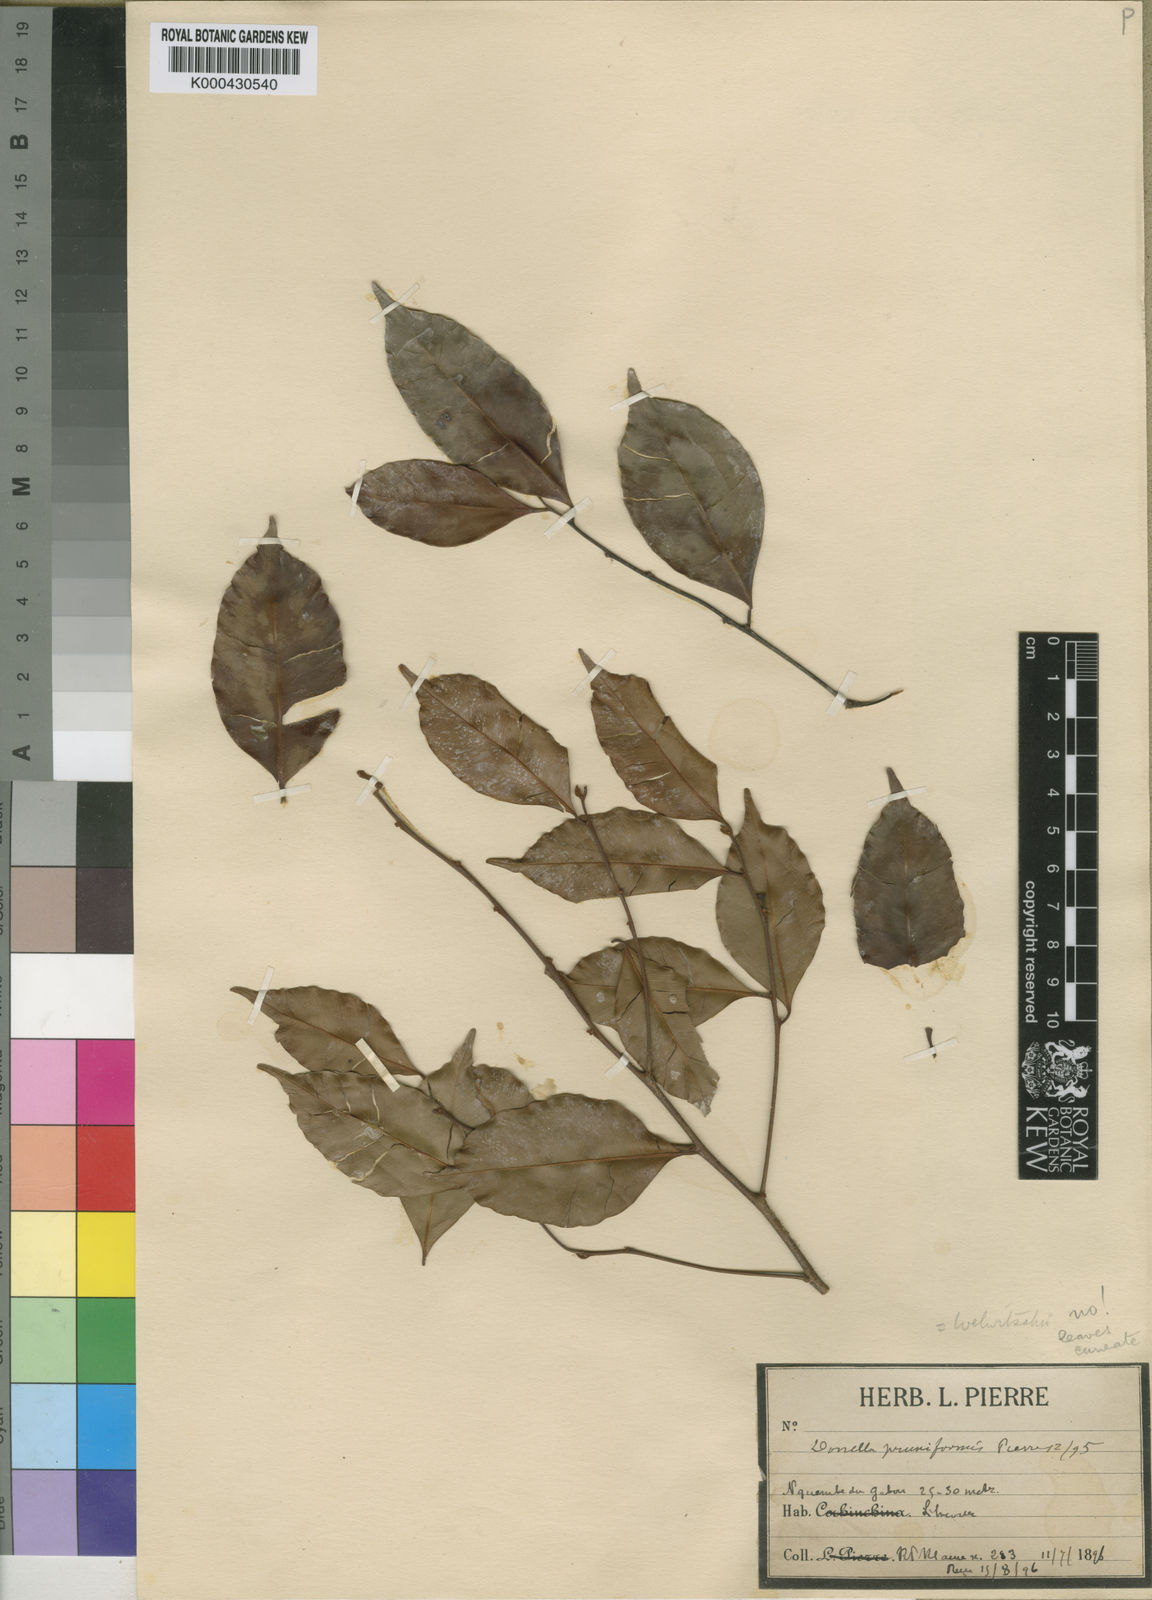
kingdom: Plantae
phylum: Tracheophyta
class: Magnoliopsida
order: Ericales
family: Sapotaceae
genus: Donella
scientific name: Donella pruniformis
